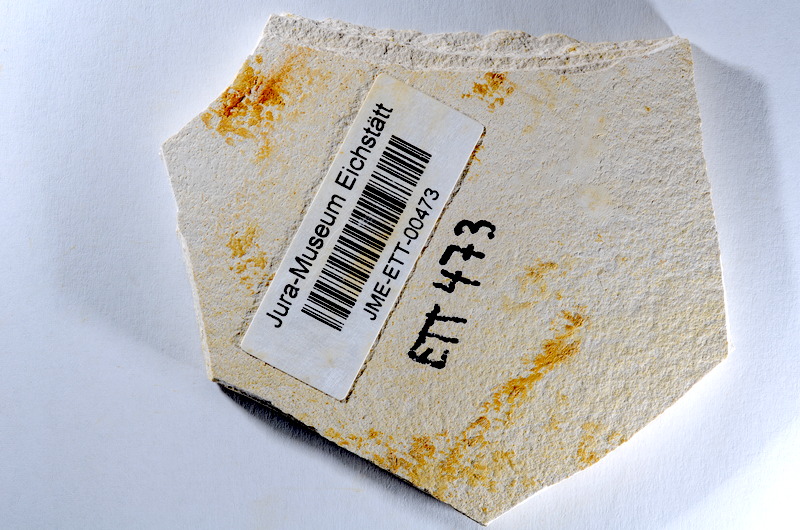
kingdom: Animalia
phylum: Chordata
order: Salmoniformes
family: Orthogonikleithridae
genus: Orthogonikleithrus
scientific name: Orthogonikleithrus hoelli
